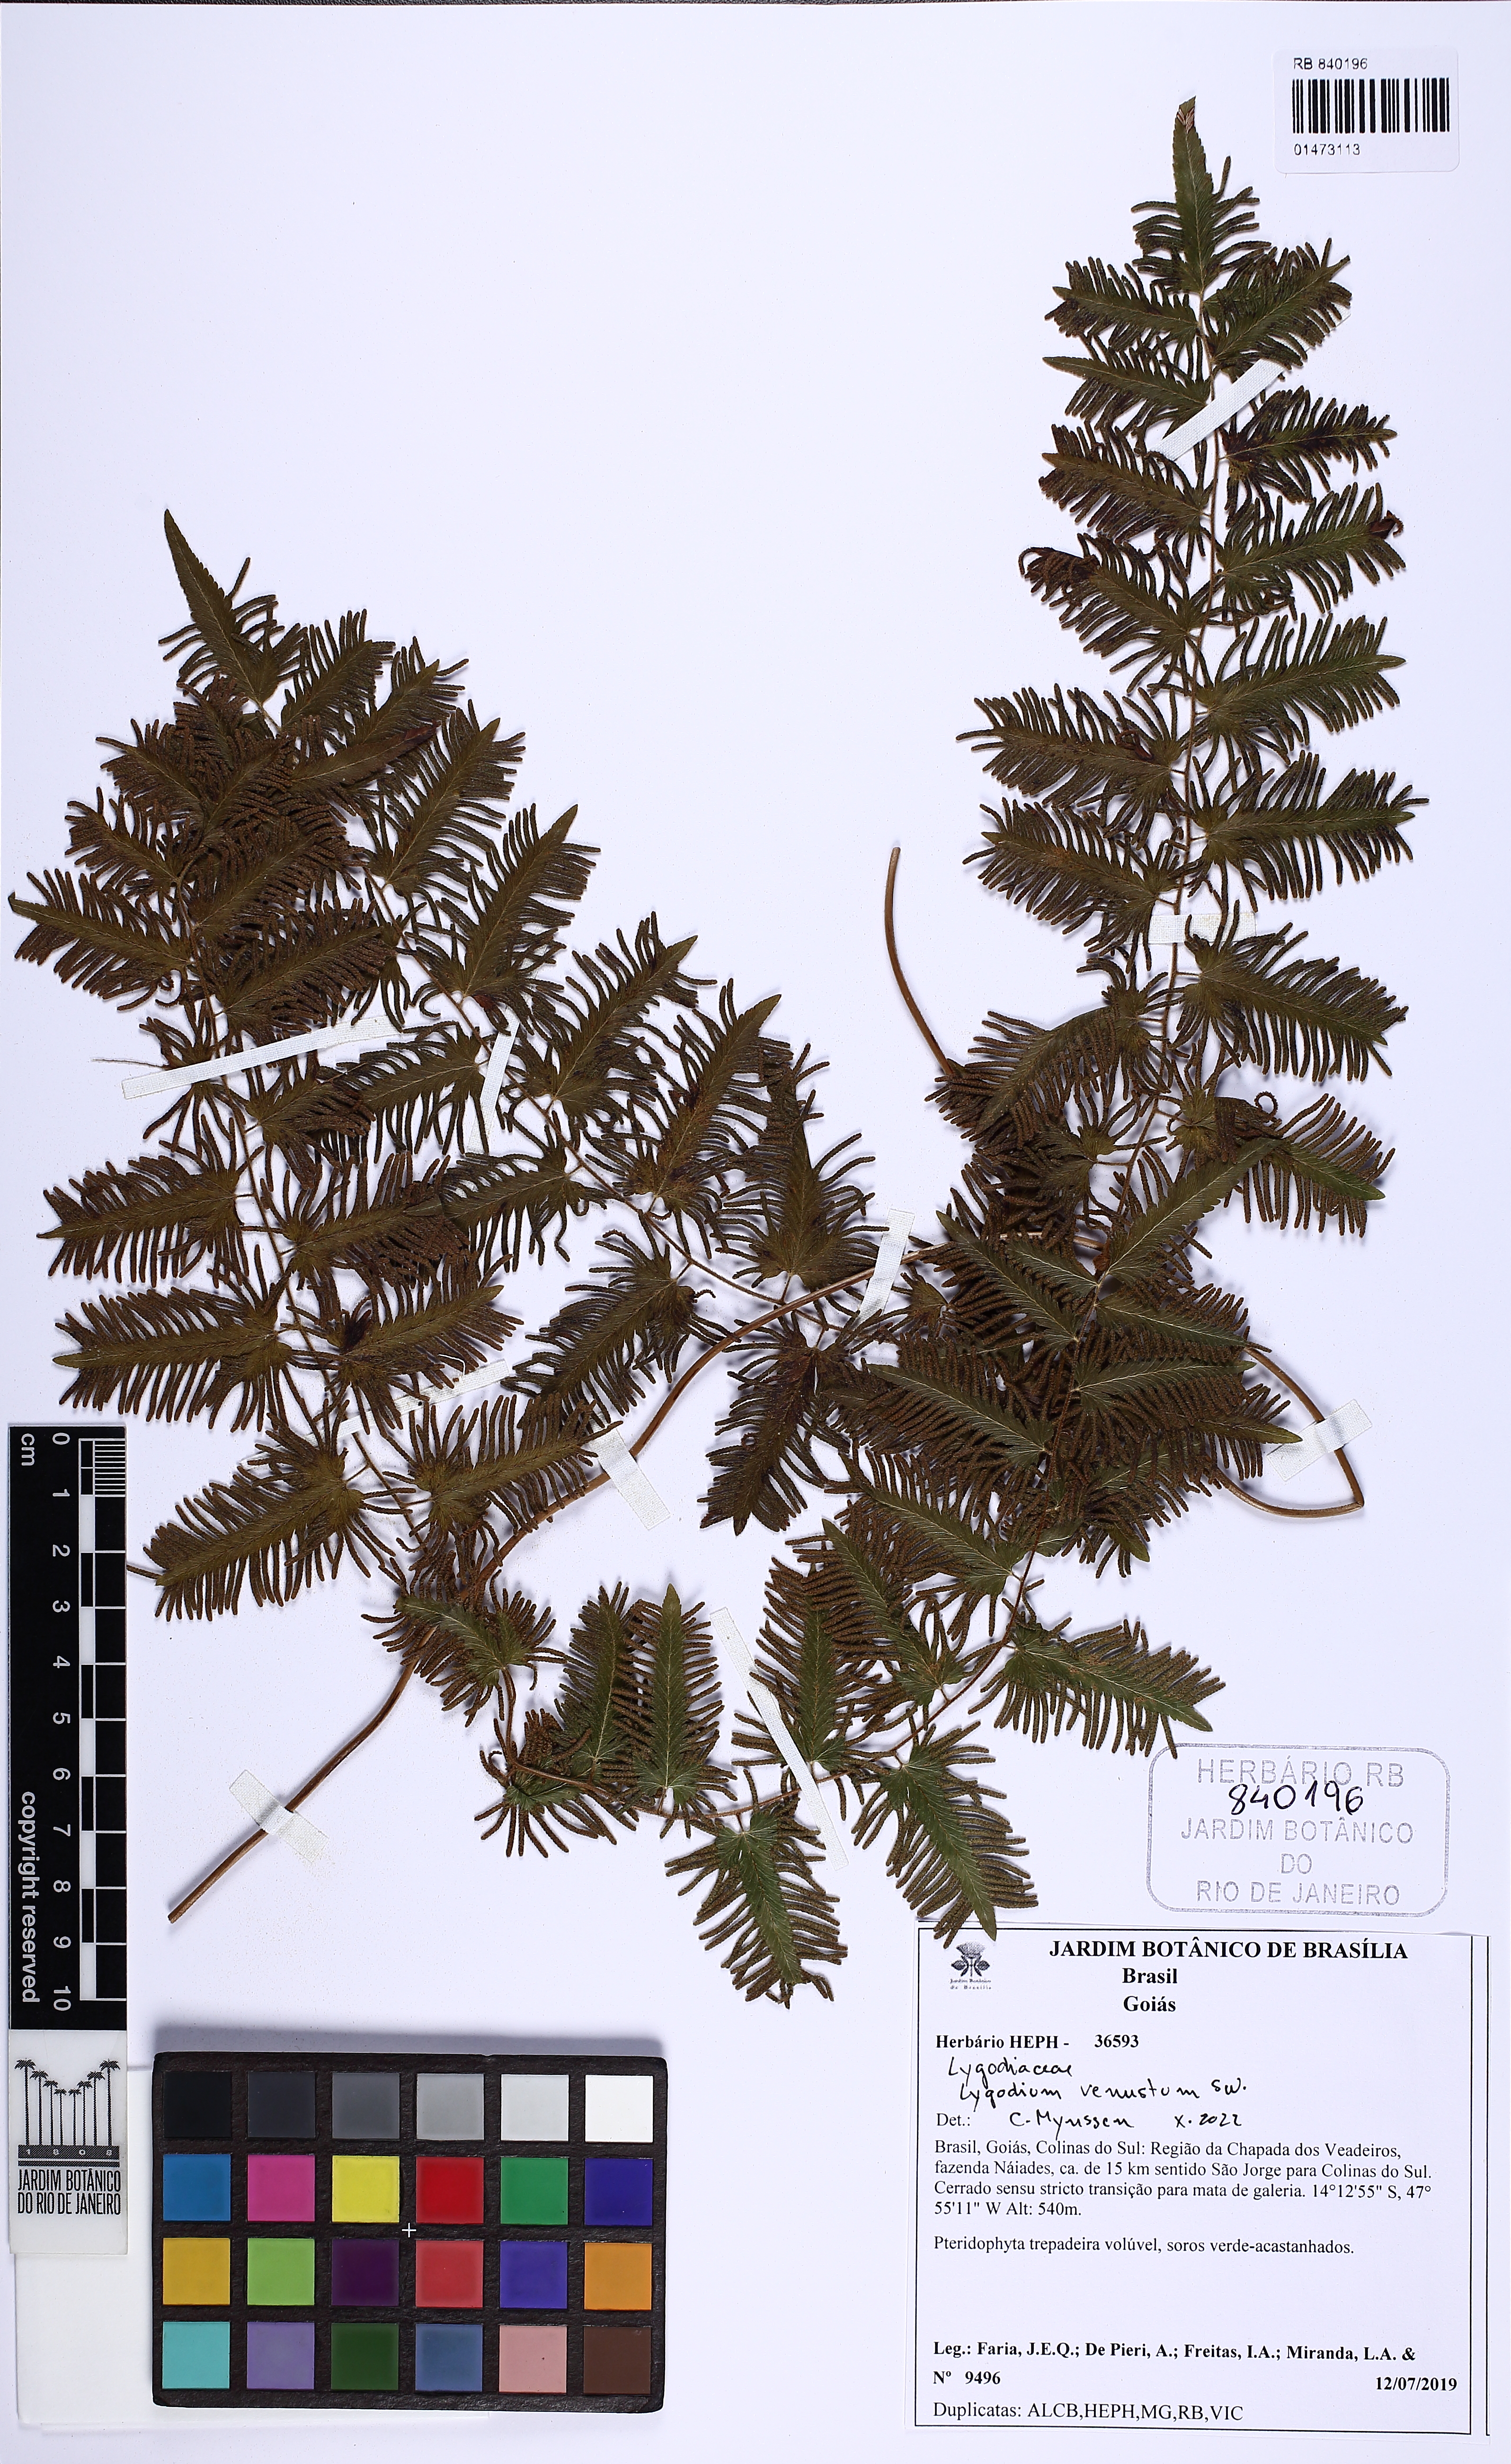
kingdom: Plantae
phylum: Tracheophyta
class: Polypodiopsida
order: Schizaeales
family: Lygodiaceae
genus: Lygodium
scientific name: Lygodium venustum
